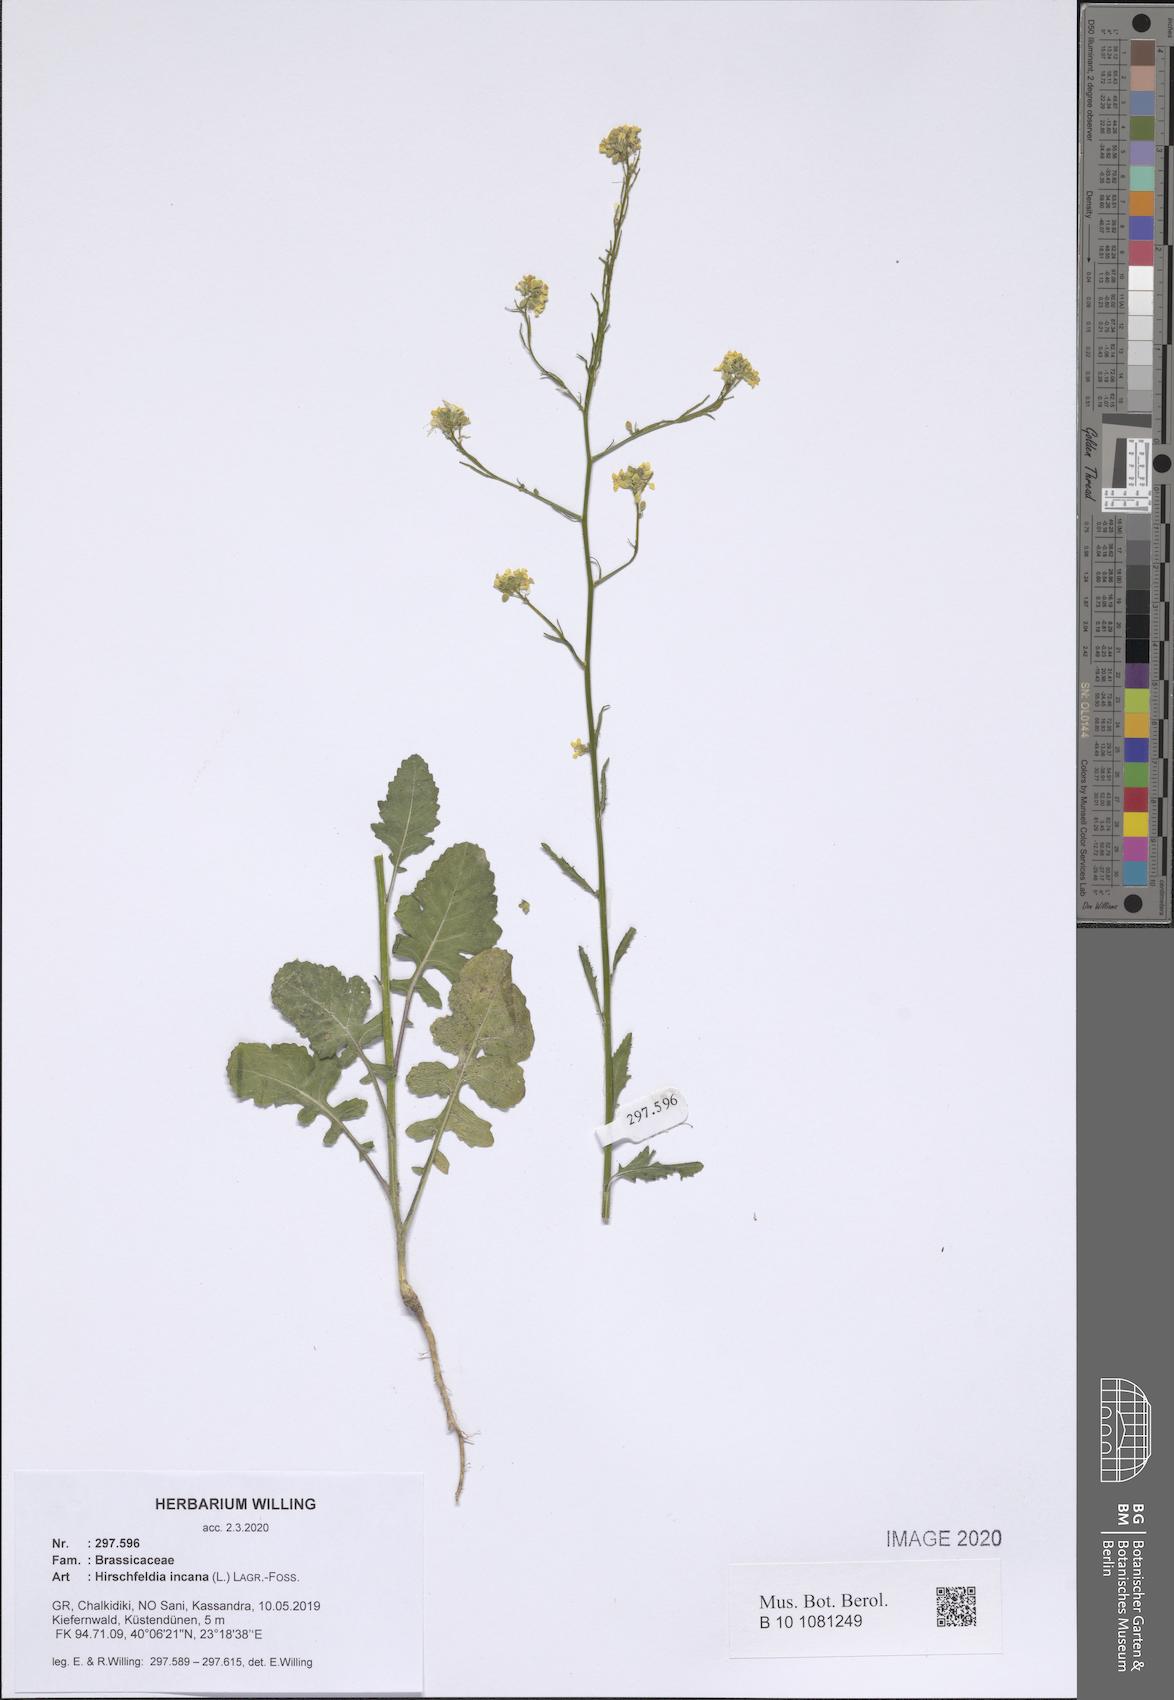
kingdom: Plantae
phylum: Tracheophyta
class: Magnoliopsida
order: Brassicales
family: Brassicaceae
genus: Hirschfeldia
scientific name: Hirschfeldia incana
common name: Hoary mustard
